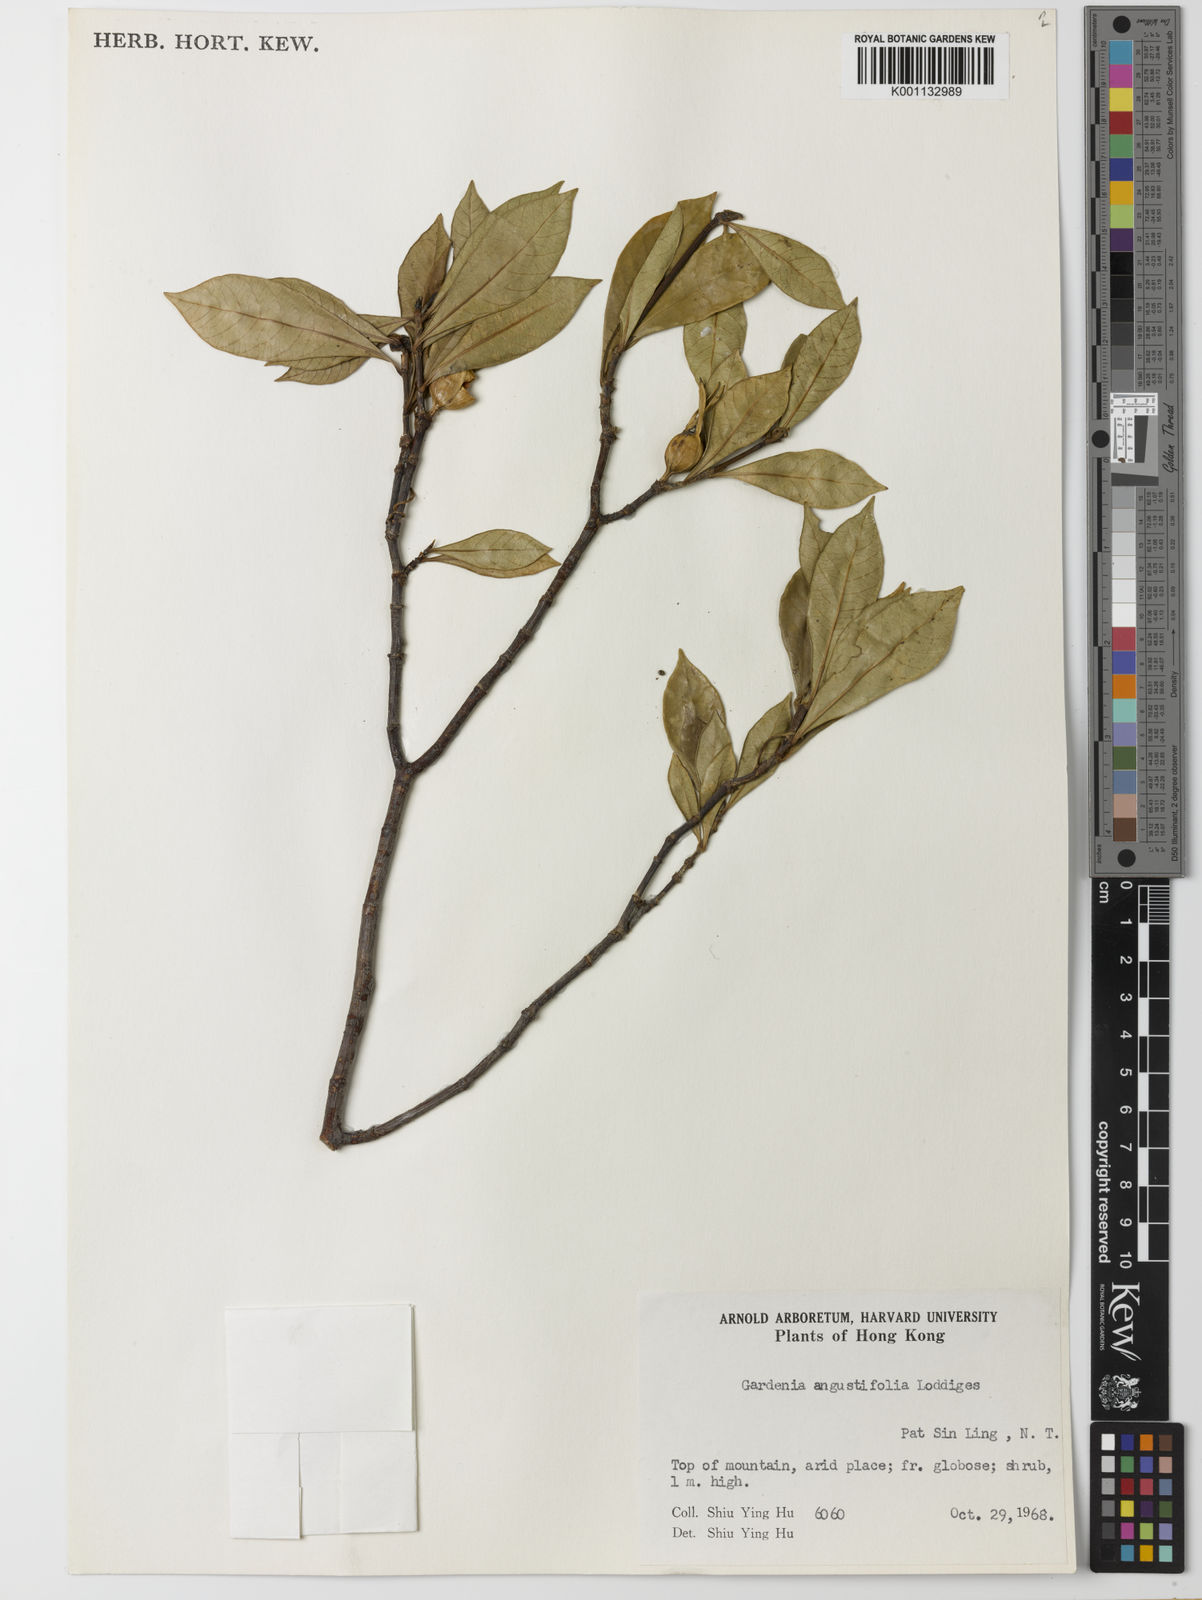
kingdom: Plantae
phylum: Tracheophyta
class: Magnoliopsida
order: Gentianales
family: Rubiaceae
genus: Gardenia
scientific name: Gardenia jasminoides
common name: Cape-jasmine
